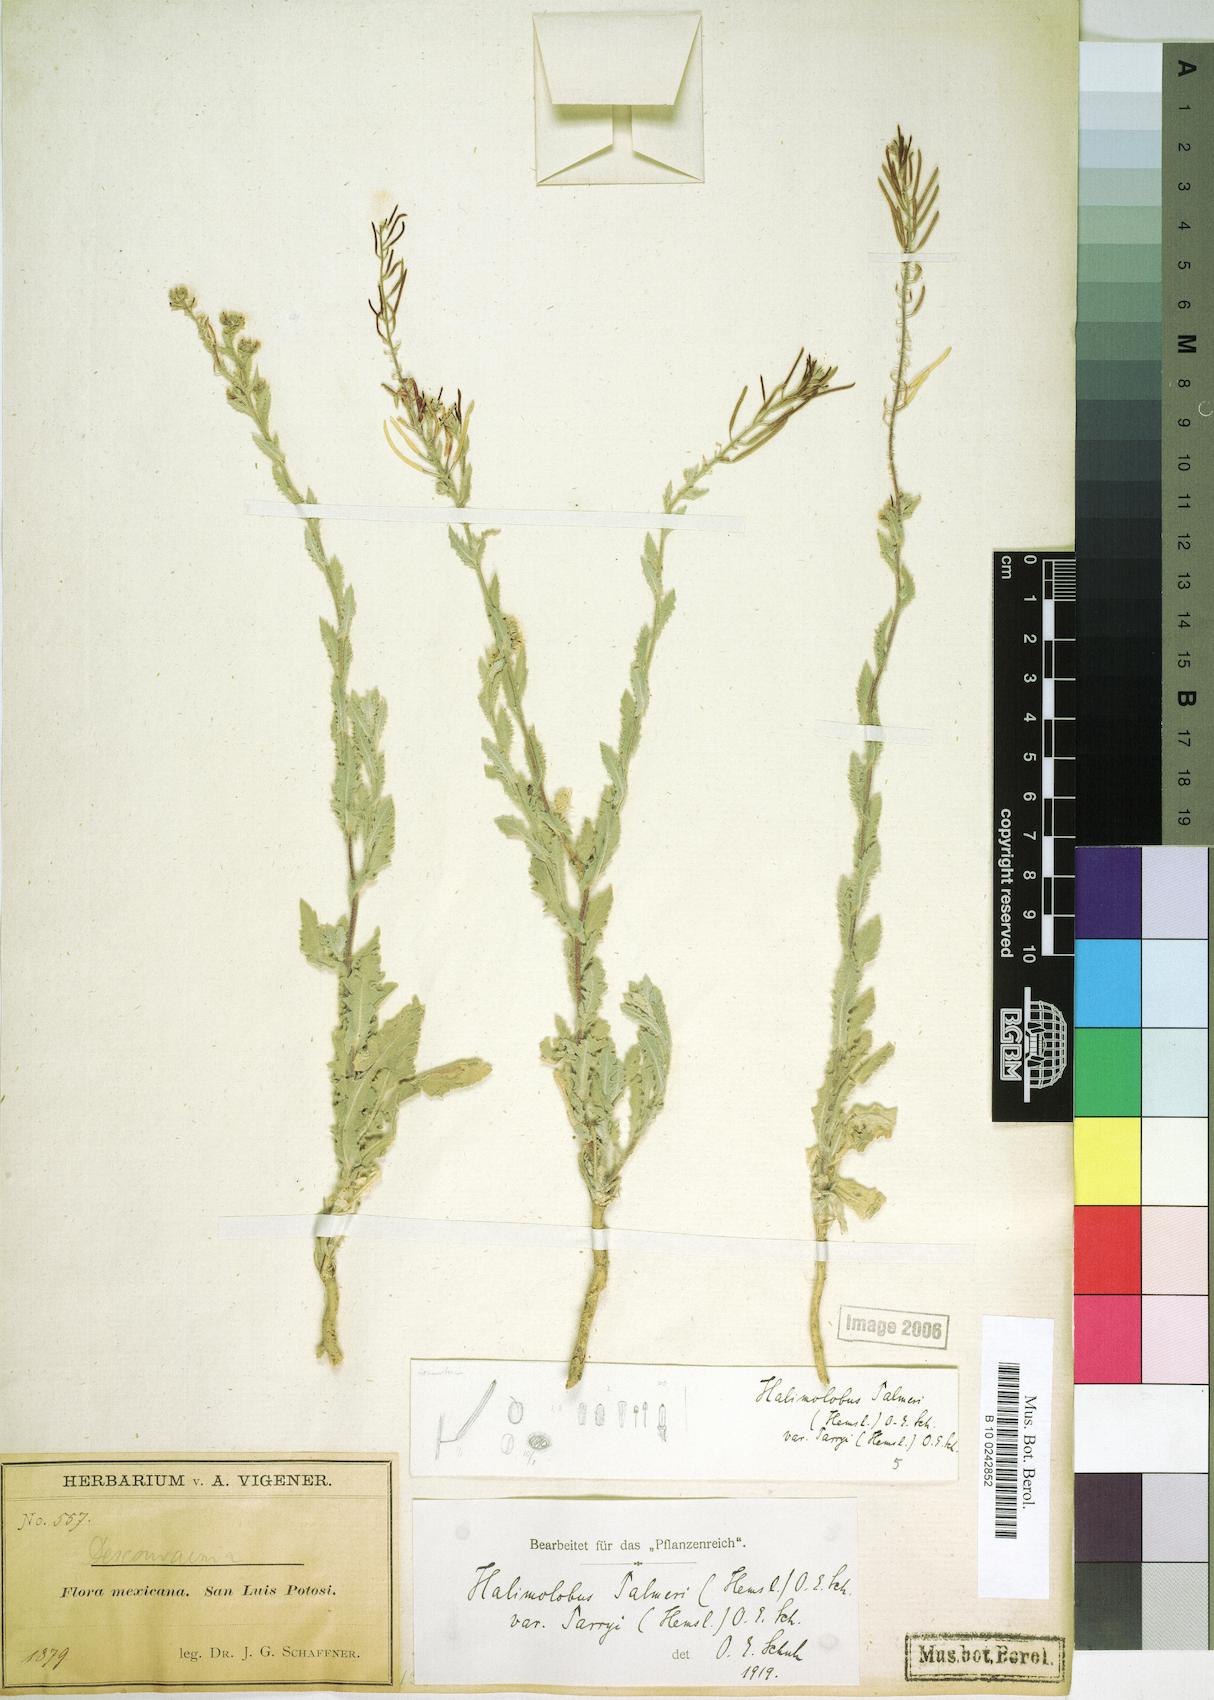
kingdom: Plantae
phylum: Tracheophyta
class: Magnoliopsida
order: Brassicales
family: Brassicaceae
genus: Exhalimolobos
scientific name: Exhalimolobos parryi
